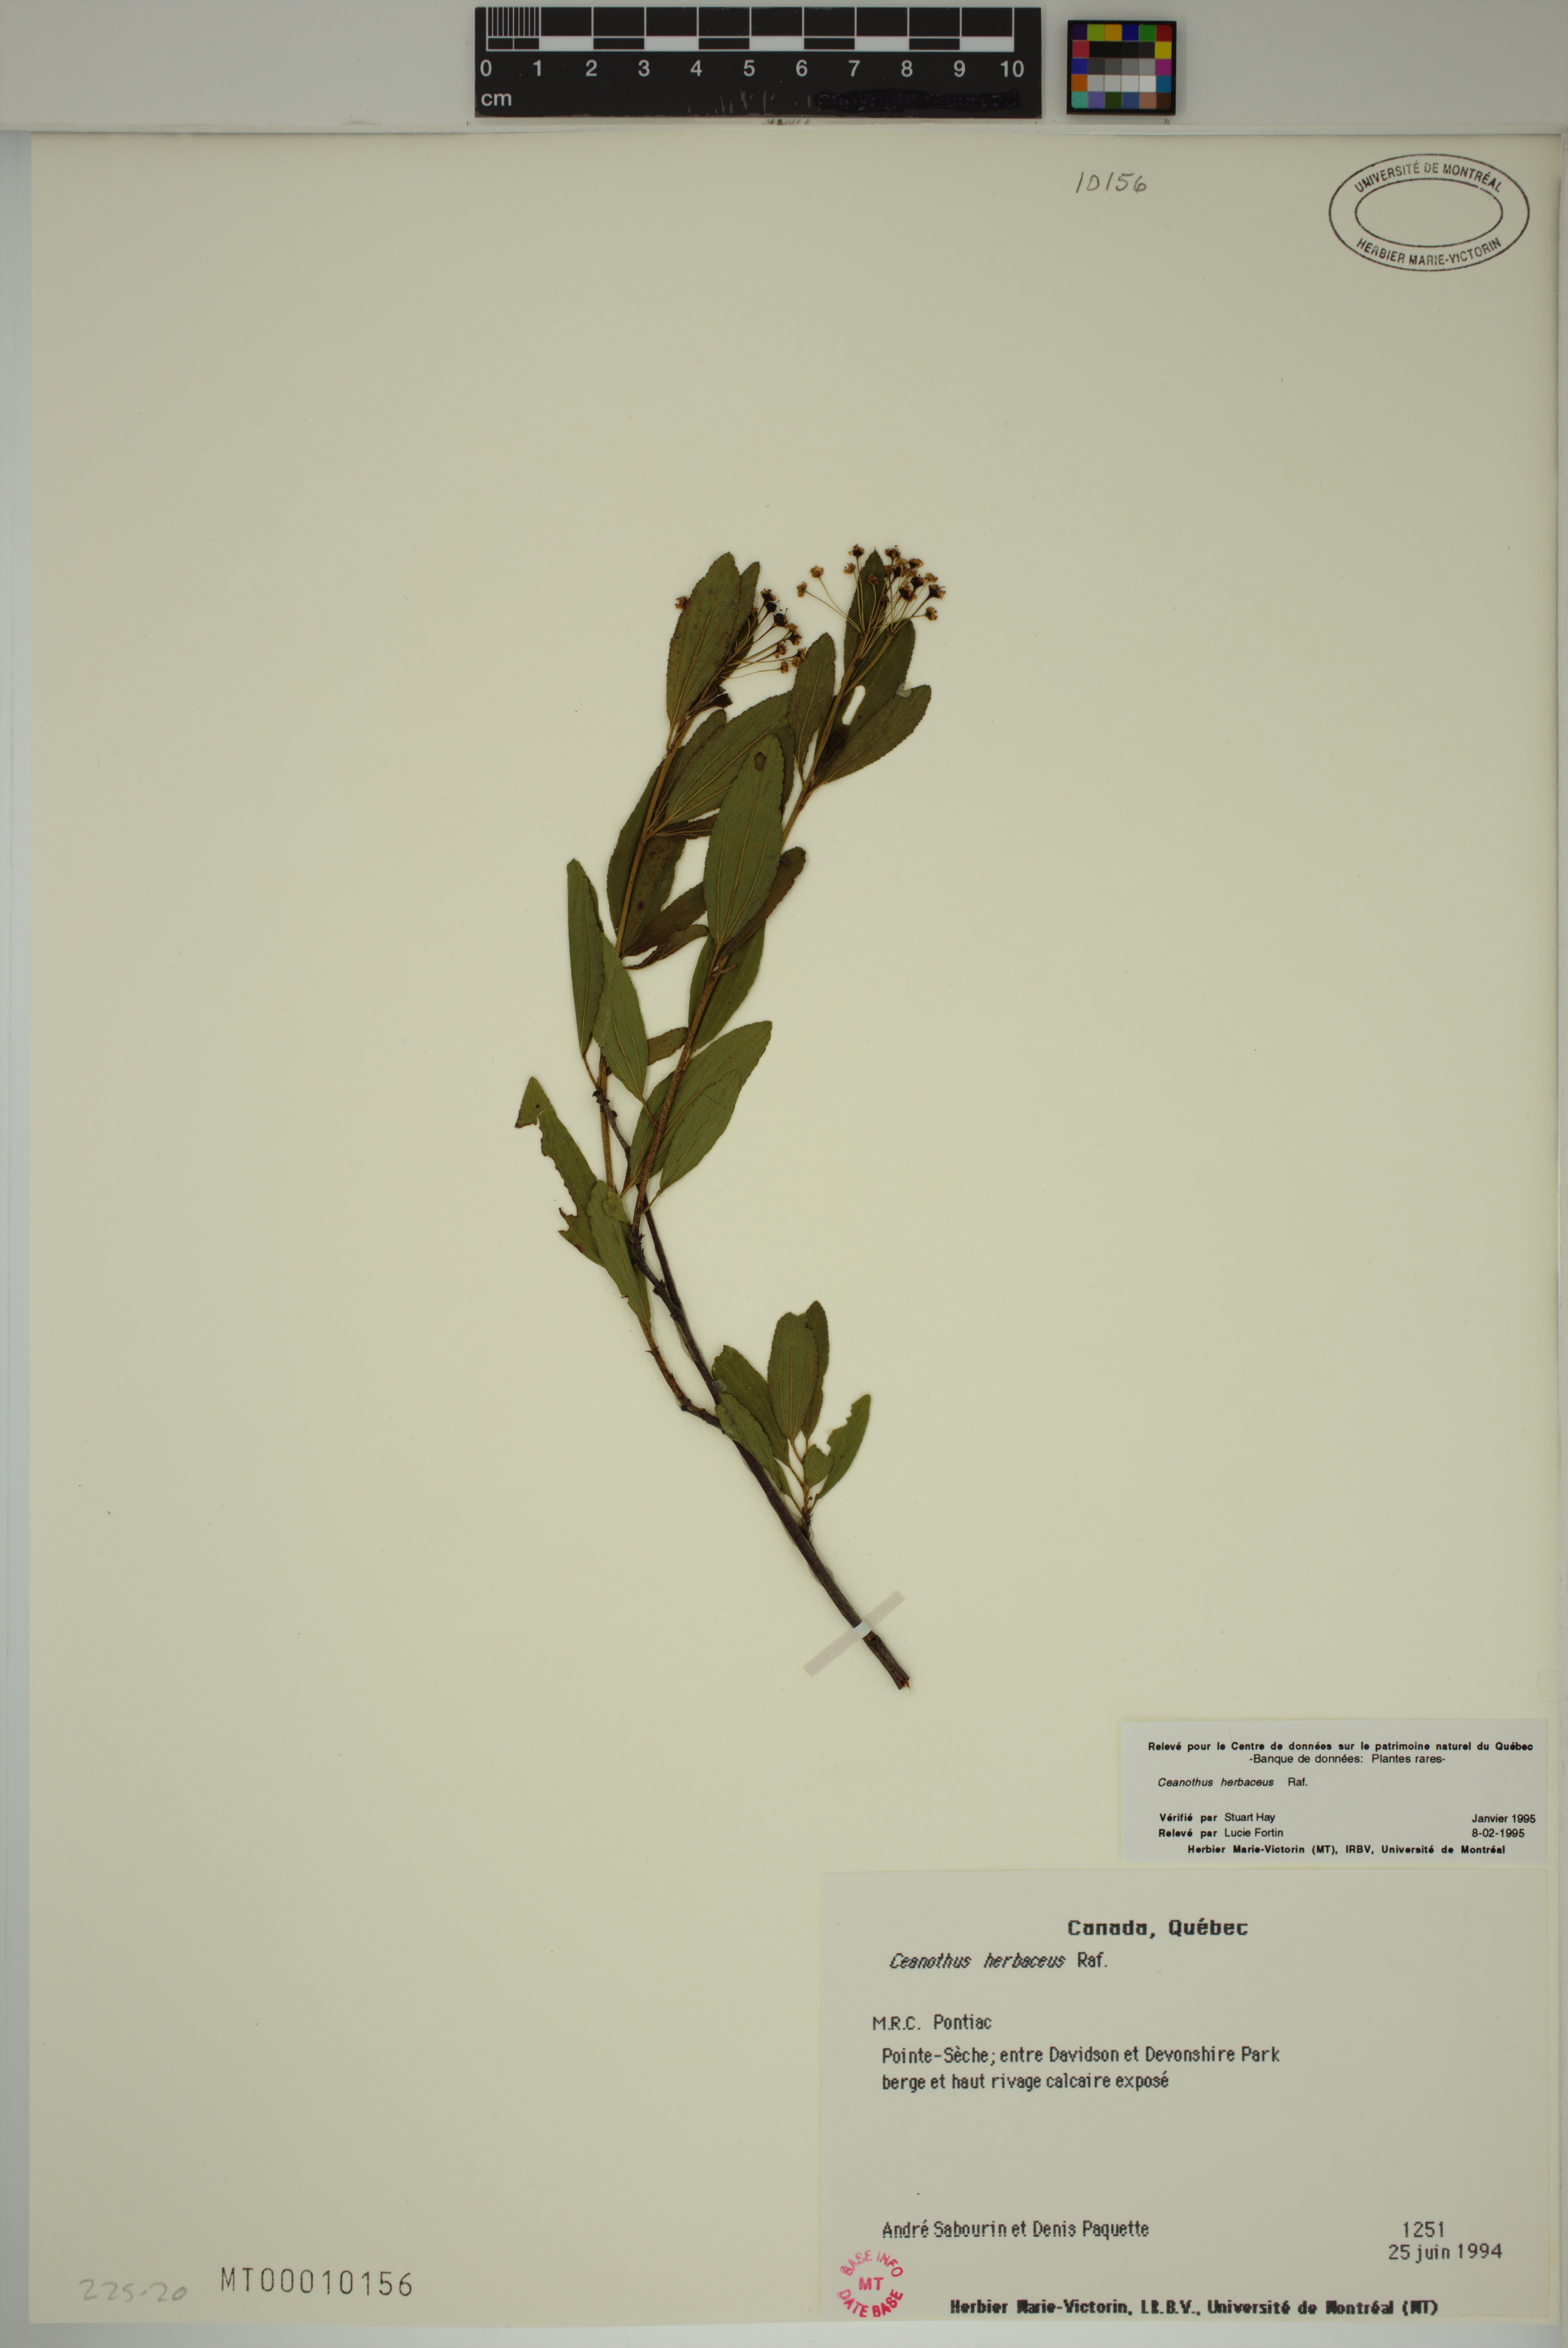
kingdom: Plantae
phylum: Tracheophyta
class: Magnoliopsida
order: Rosales
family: Rhamnaceae
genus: Ceanothus
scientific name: Ceanothus herbaceus
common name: Inland ceanothus
